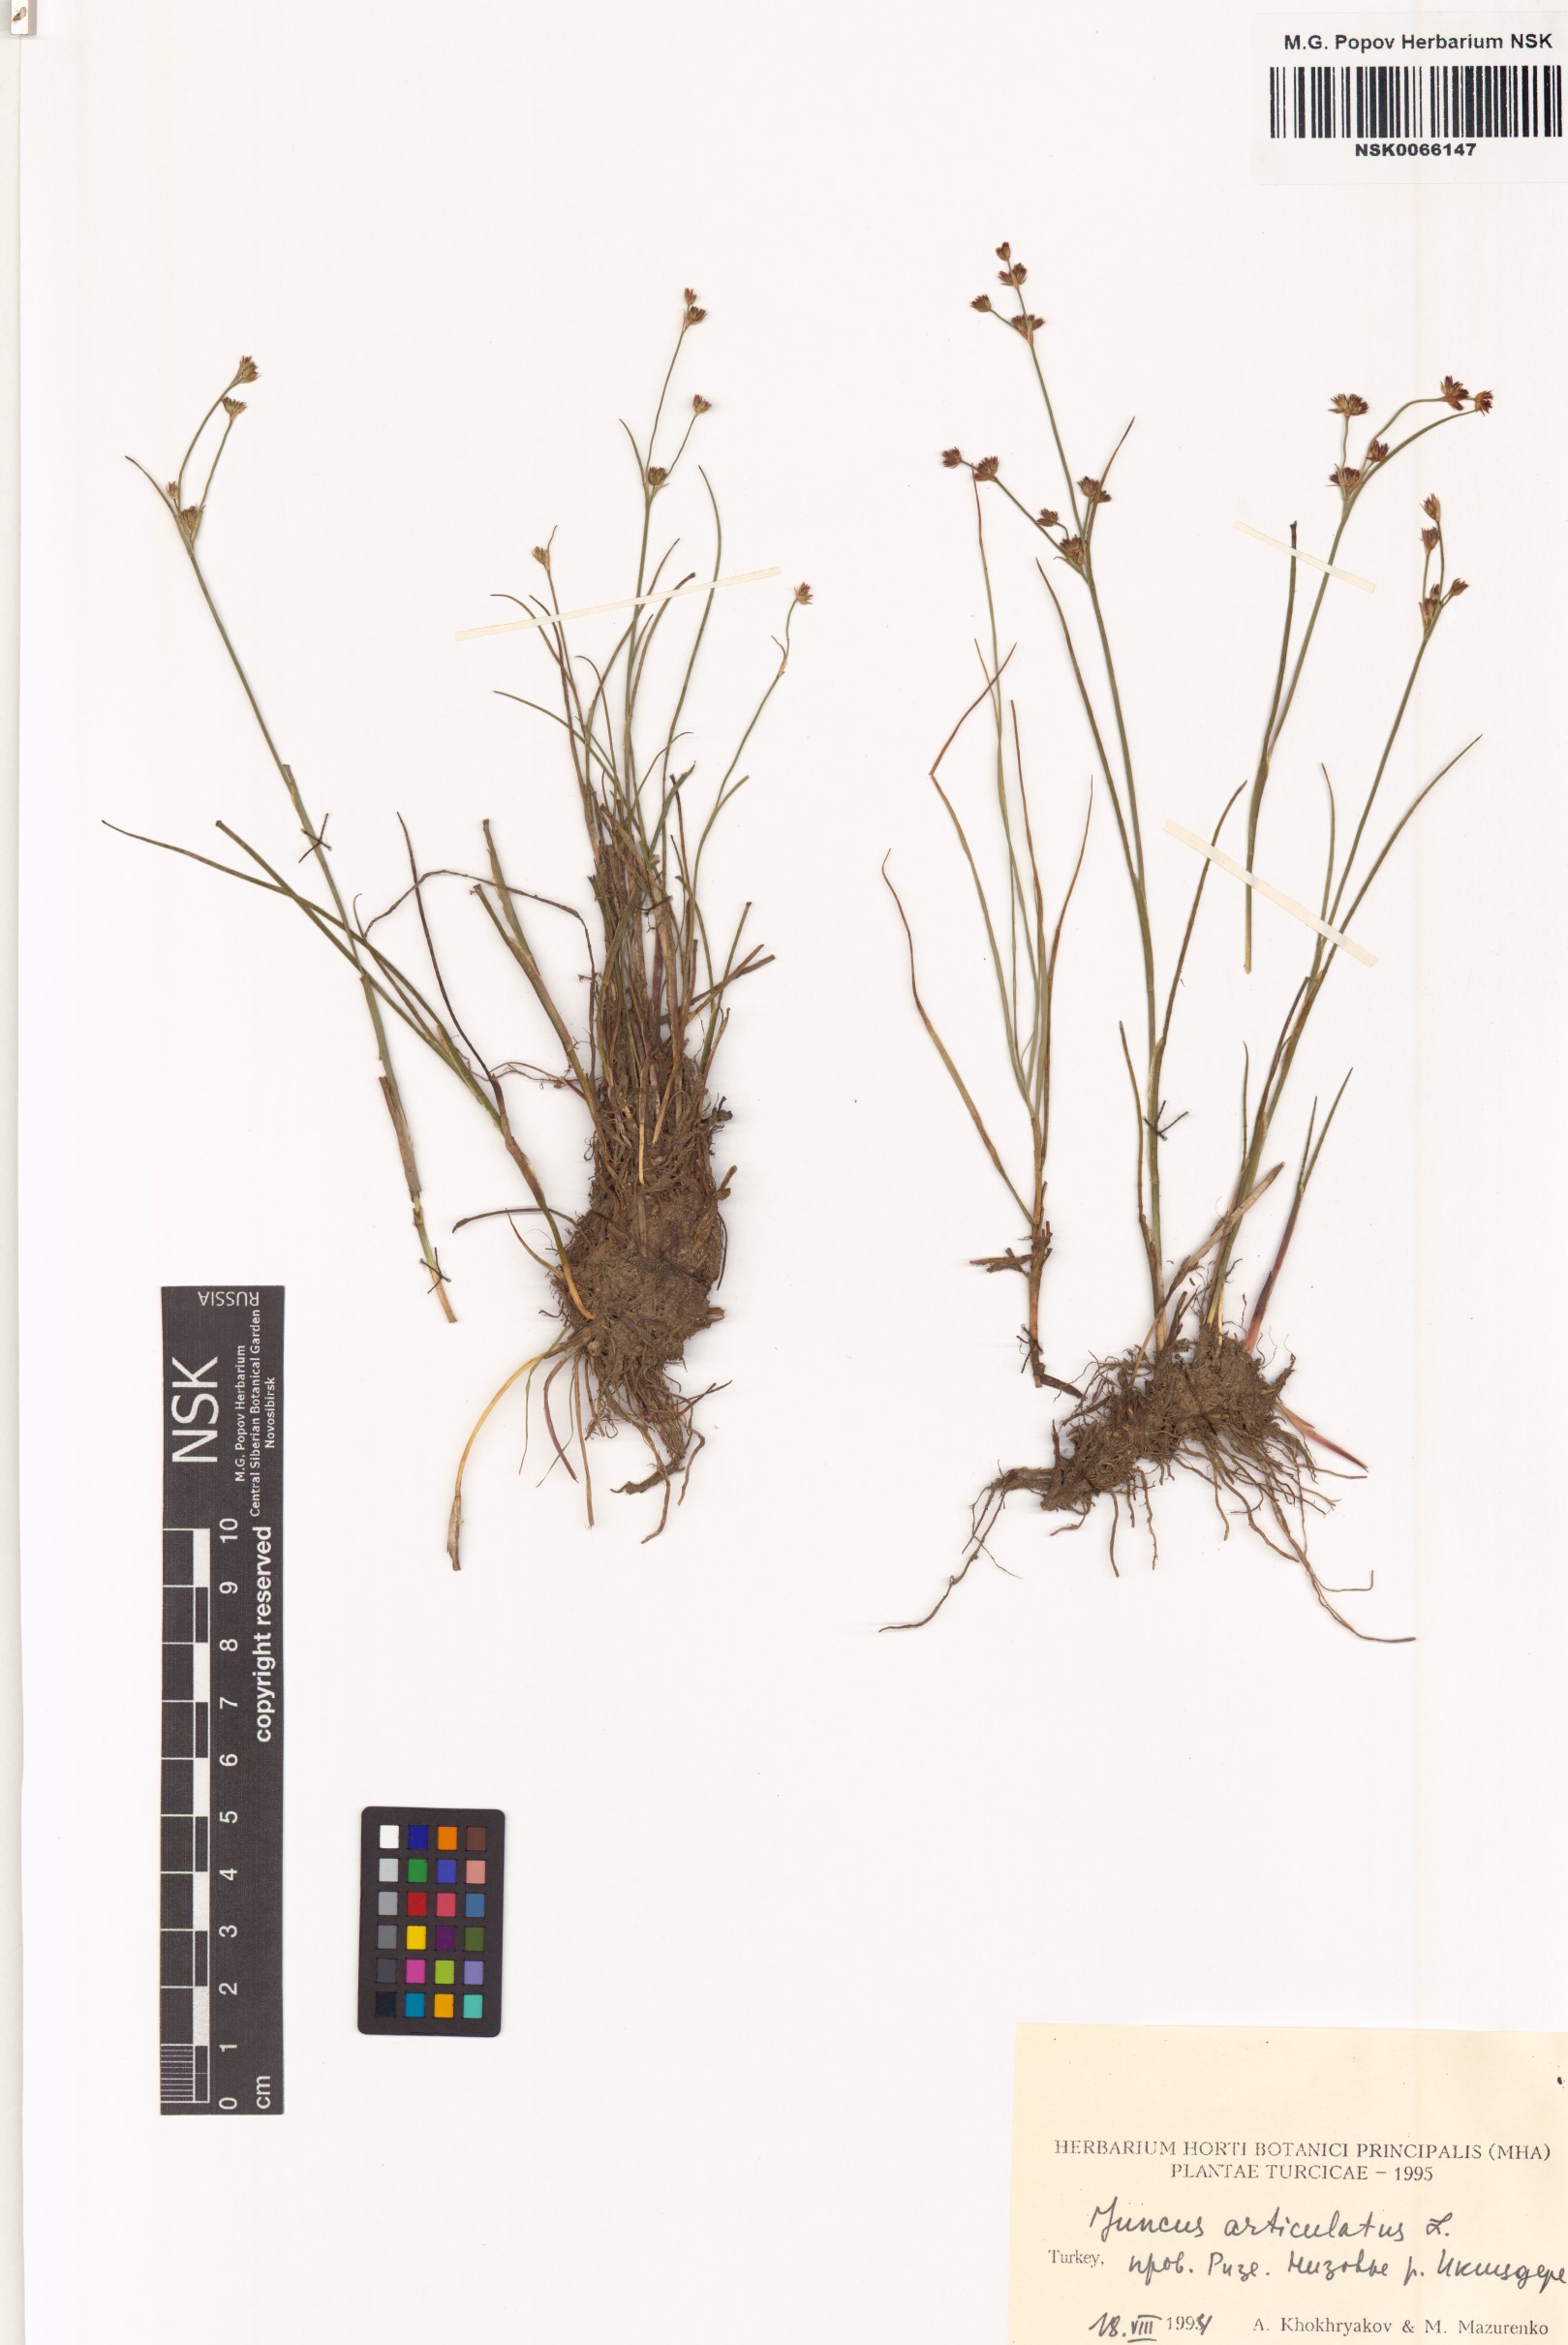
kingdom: Plantae
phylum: Tracheophyta
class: Liliopsida
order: Poales
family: Juncaceae
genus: Juncus
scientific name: Juncus articulatus
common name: Jointed rush
